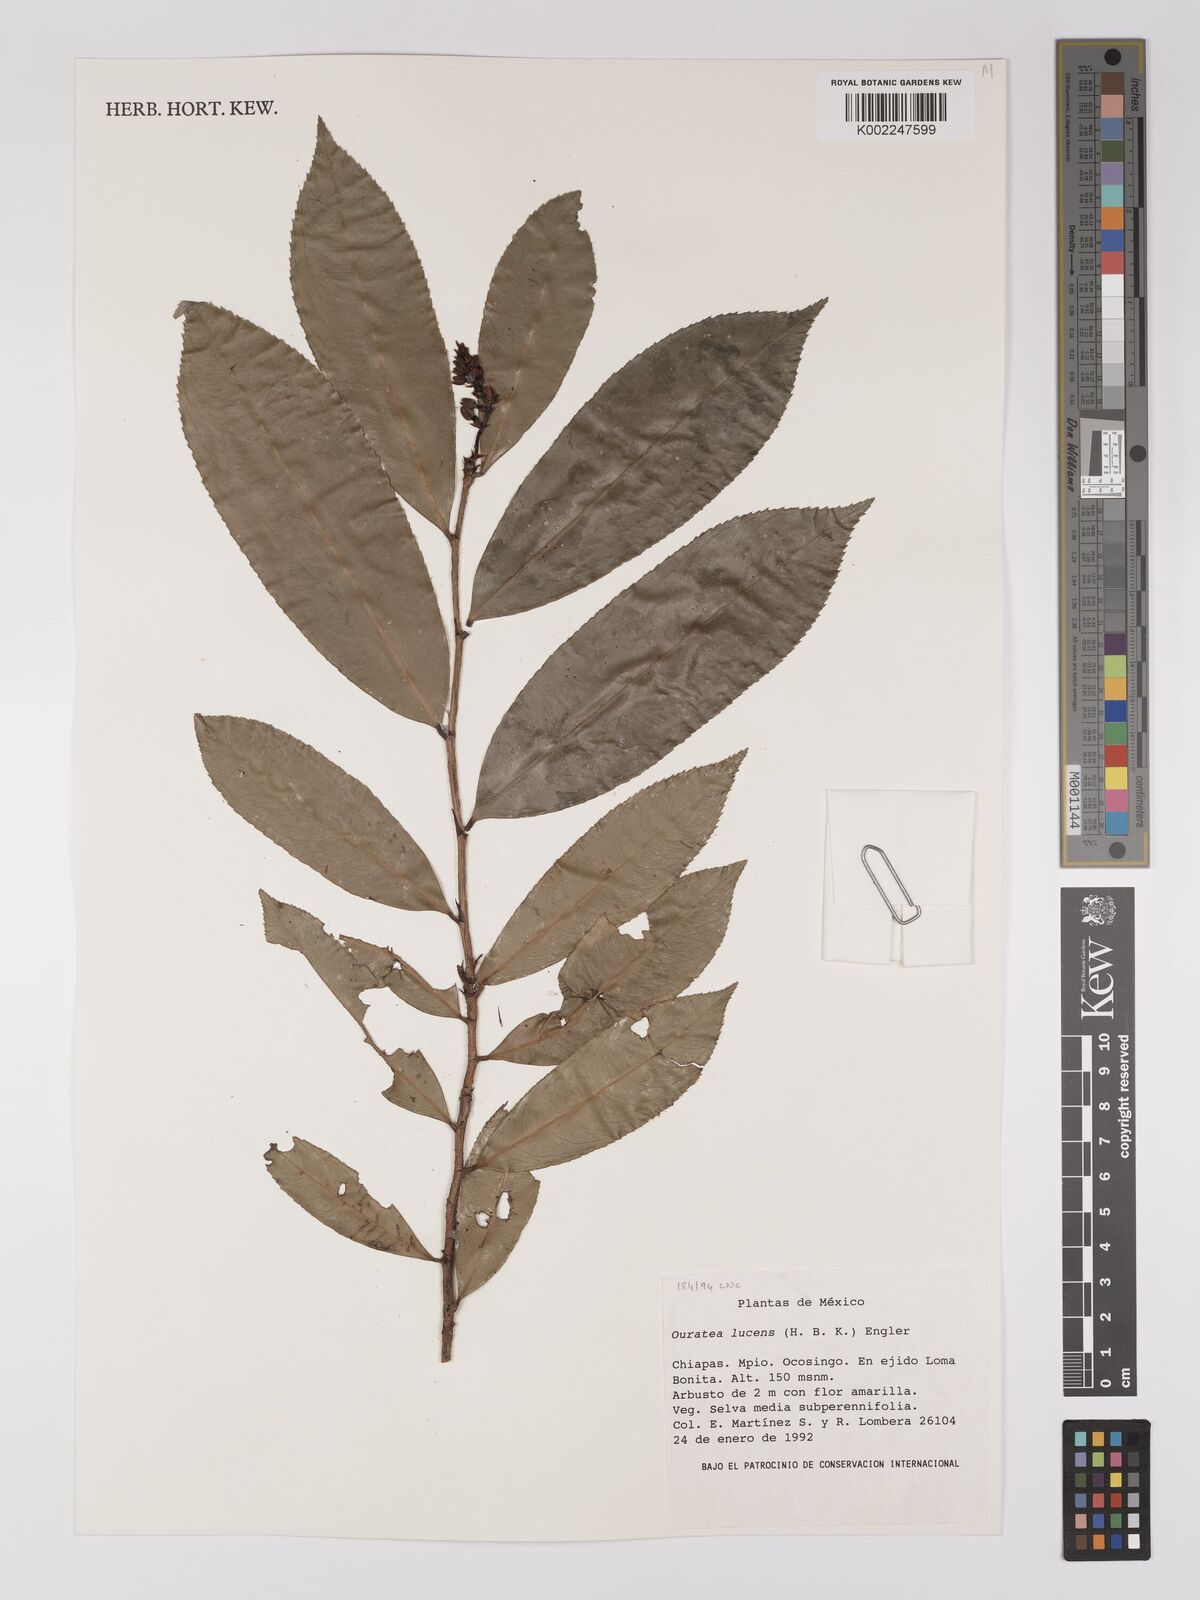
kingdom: Plantae
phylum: Tracheophyta
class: Magnoliopsida
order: Malpighiales
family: Ochnaceae
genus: Ouratea
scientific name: Ouratea lucens
